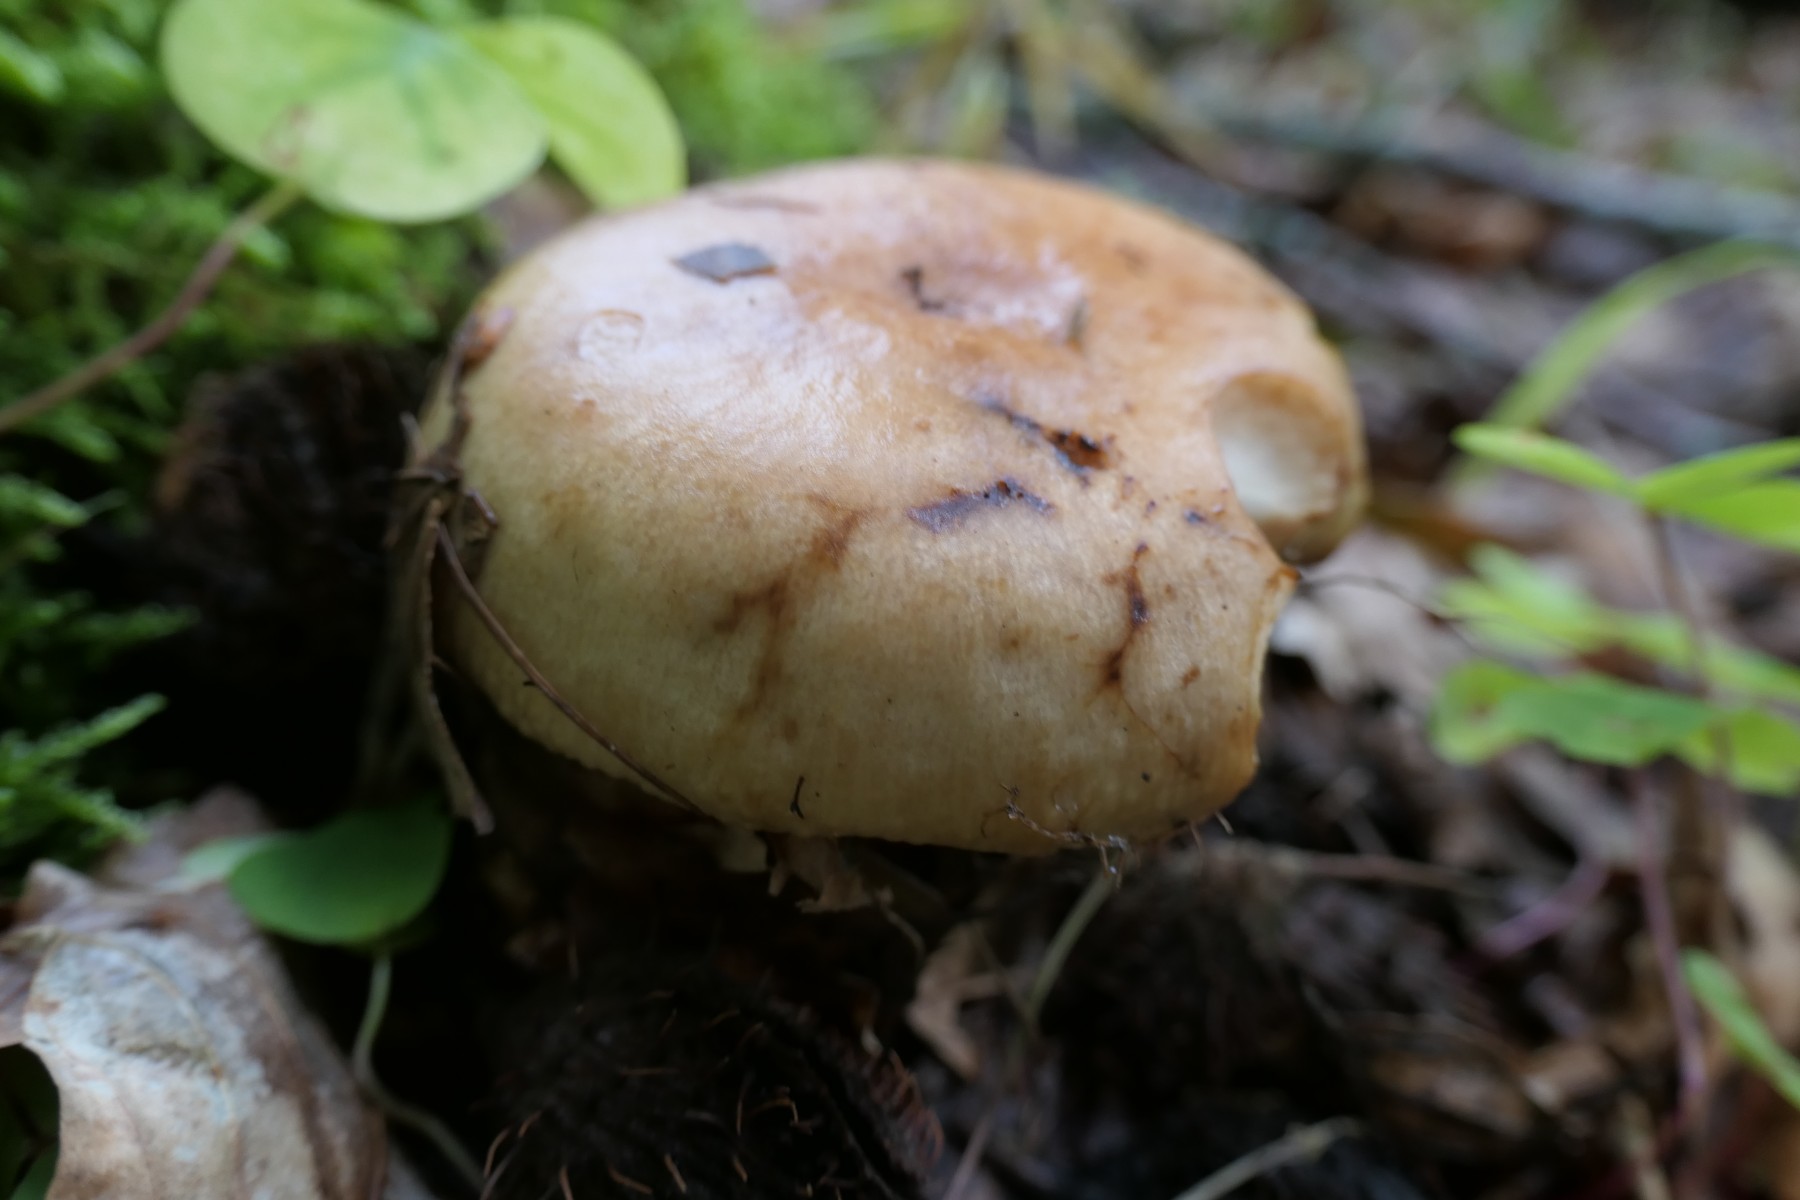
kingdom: Fungi
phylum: Basidiomycota
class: Agaricomycetes
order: Russulales
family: Russulaceae
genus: Russula
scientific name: Russula grata
